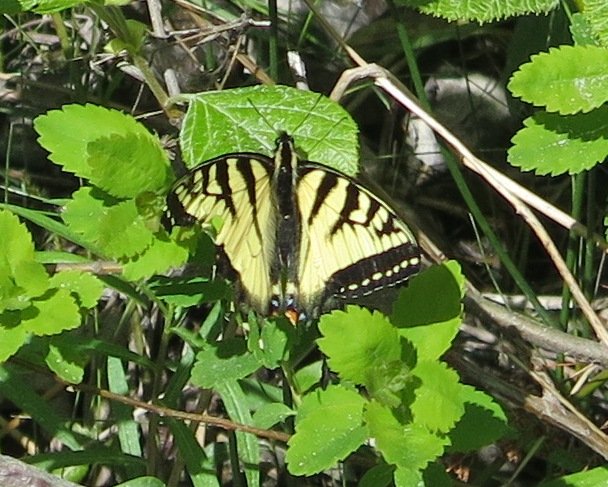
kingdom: Animalia
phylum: Arthropoda
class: Insecta
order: Lepidoptera
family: Papilionidae
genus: Pterourus
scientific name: Pterourus canadensis
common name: Canadian Tiger Swallowtail
